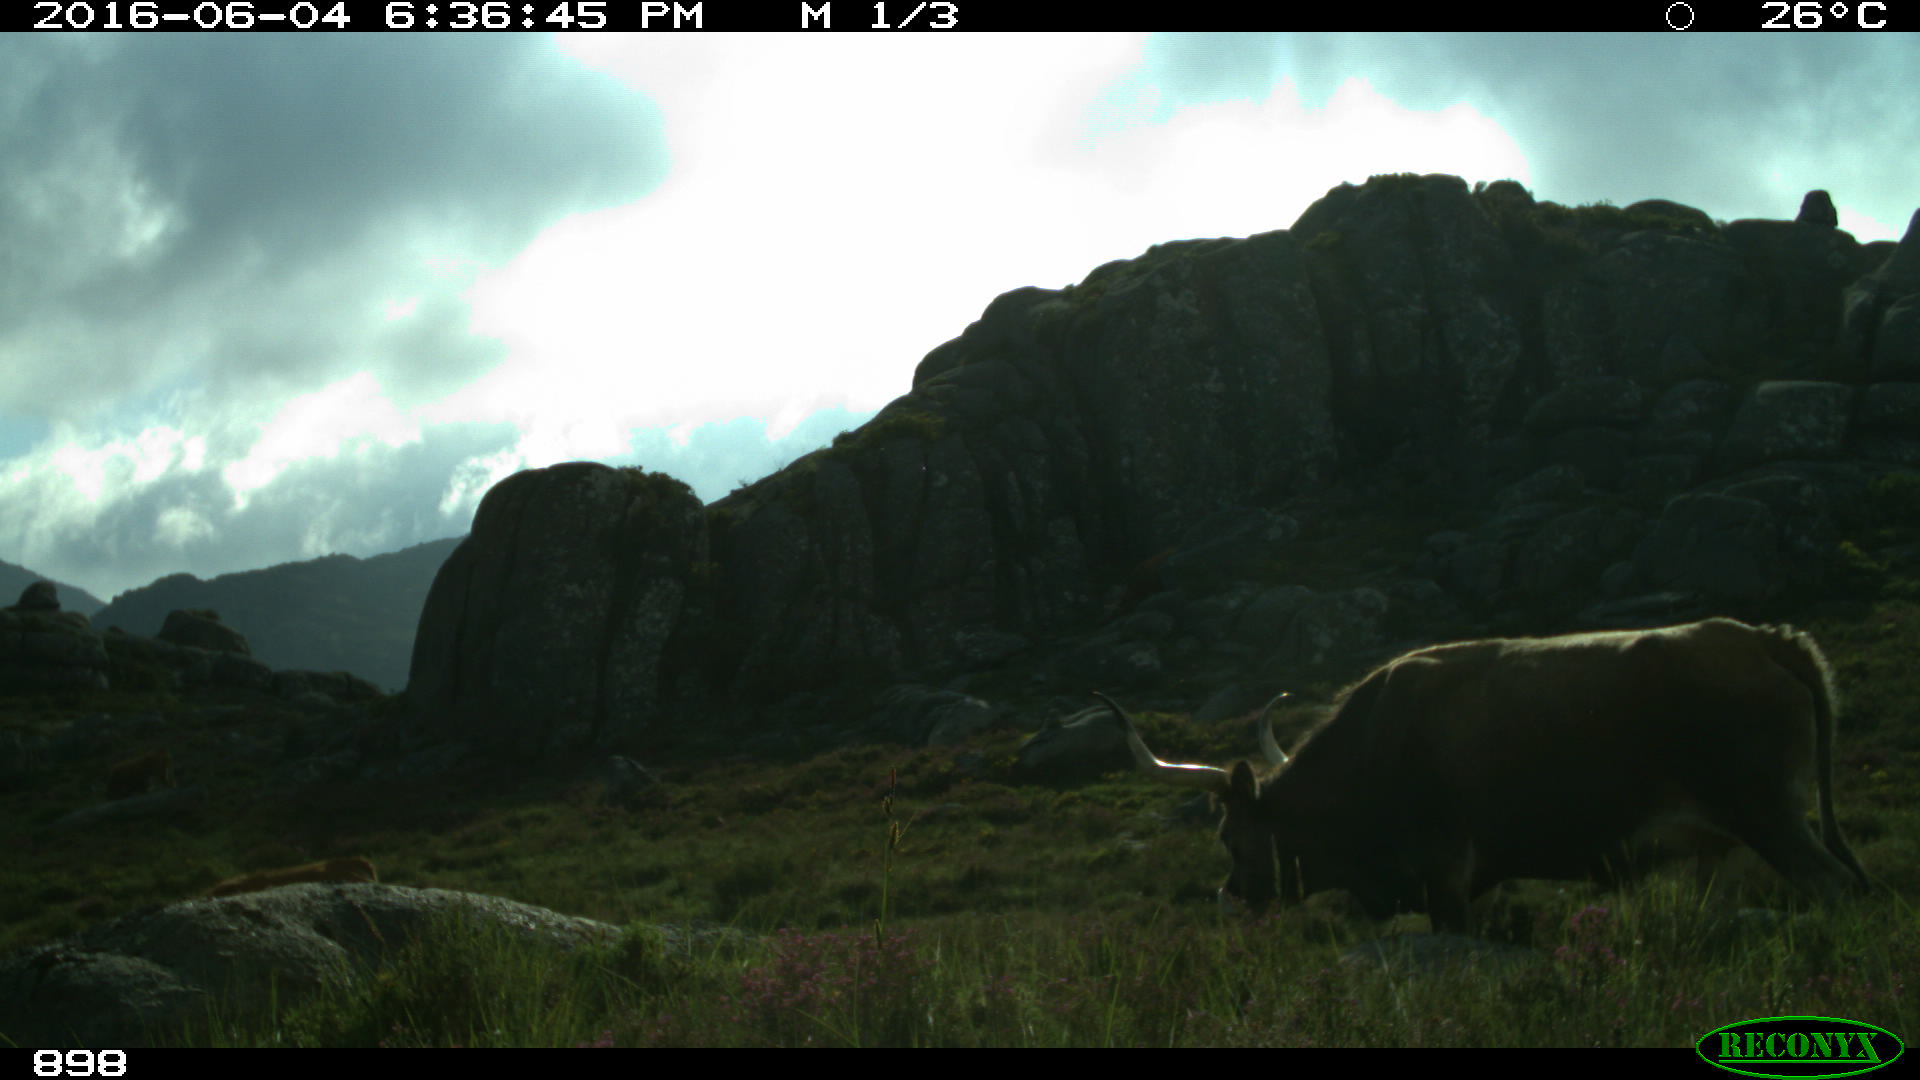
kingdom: Animalia
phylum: Chordata
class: Mammalia
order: Artiodactyla
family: Bovidae
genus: Bos
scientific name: Bos taurus
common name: Domesticated cattle
